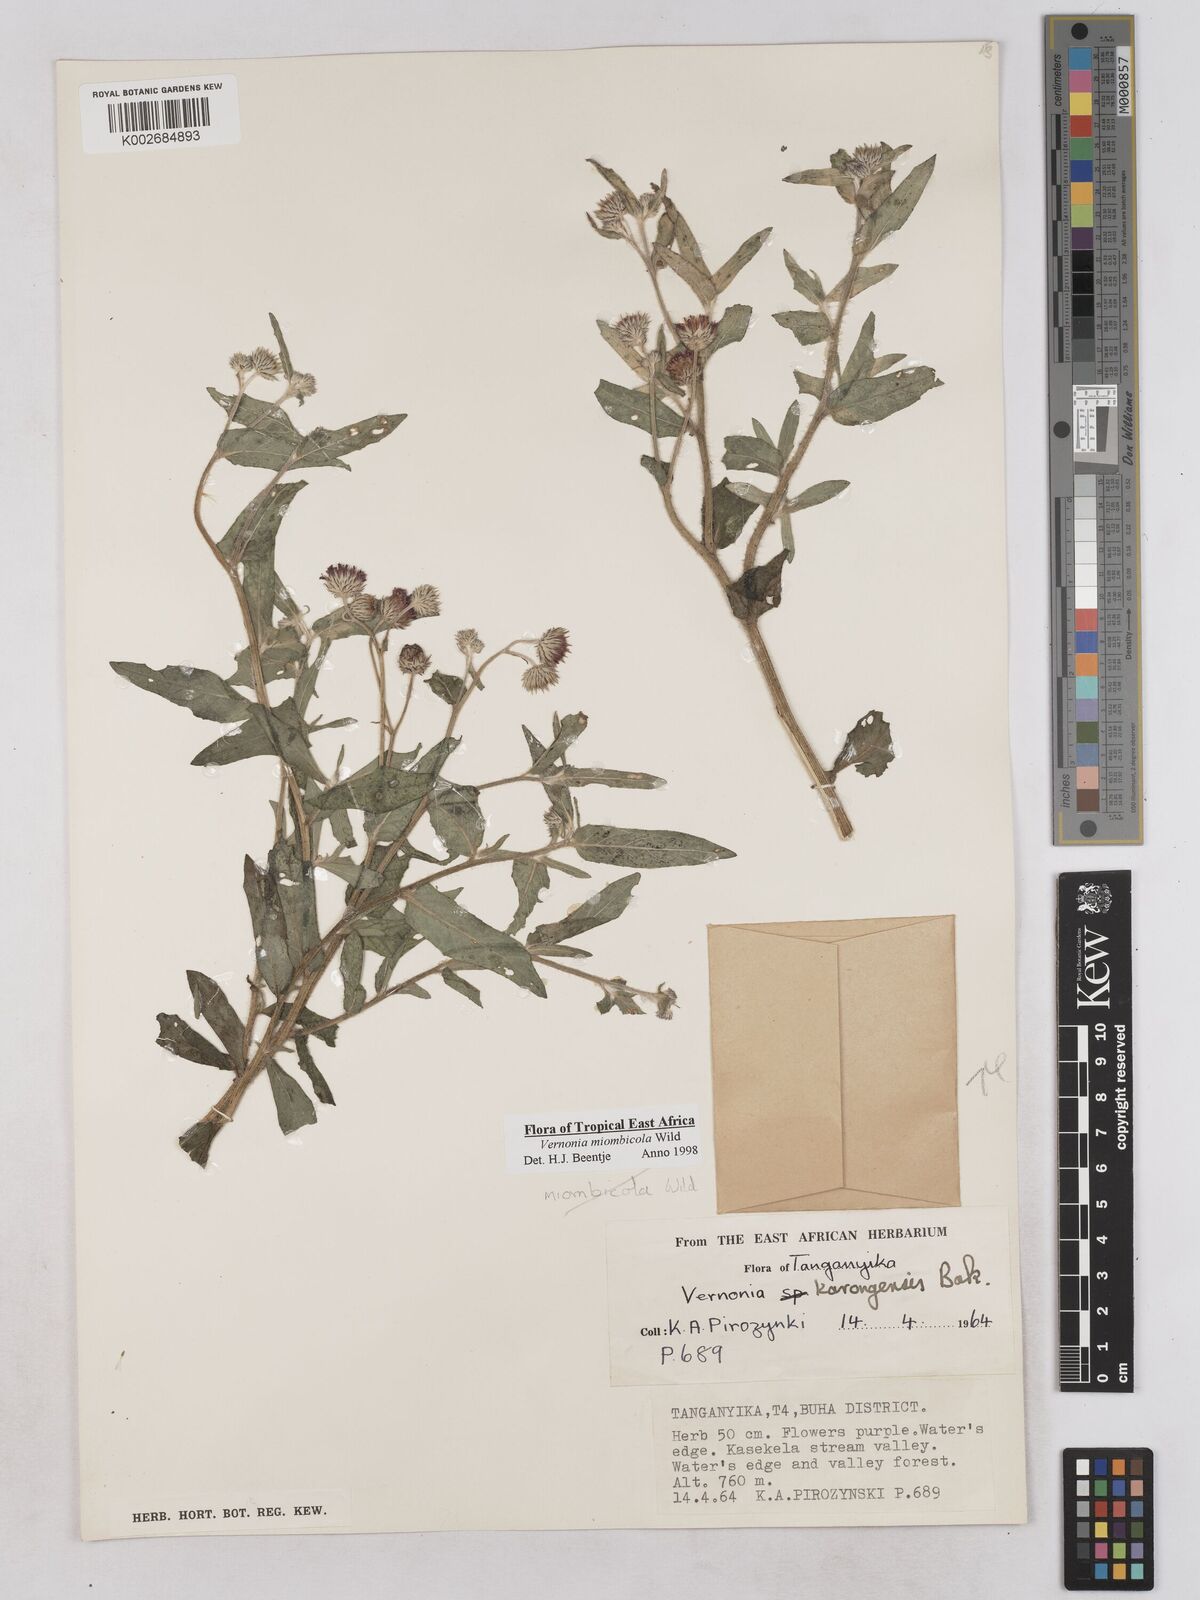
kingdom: Plantae
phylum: Tracheophyta
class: Magnoliopsida
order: Asterales
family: Asteraceae
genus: Vernonia
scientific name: Vernonia miombicola
